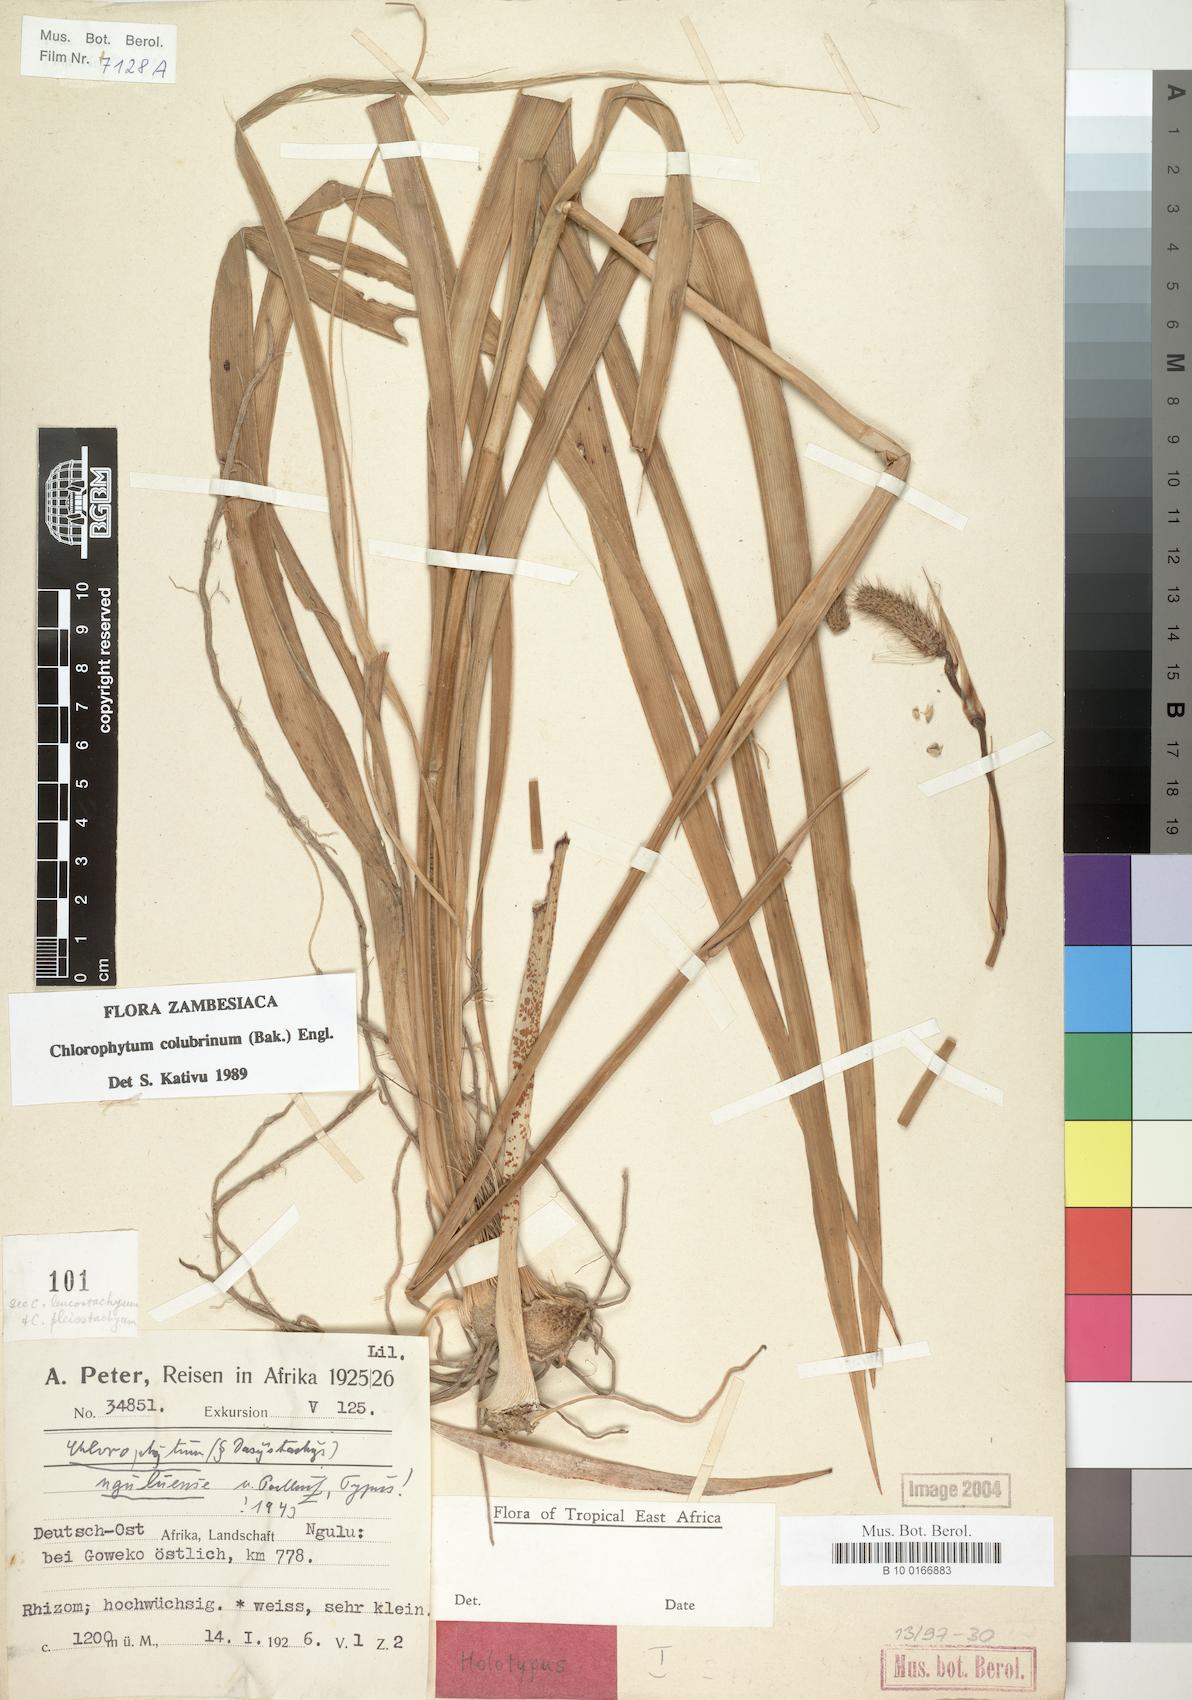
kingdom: Plantae
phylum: Tracheophyta
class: Liliopsida
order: Asparagales
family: Asparagaceae
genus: Chlorophytum
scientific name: Chlorophytum colubrinum
